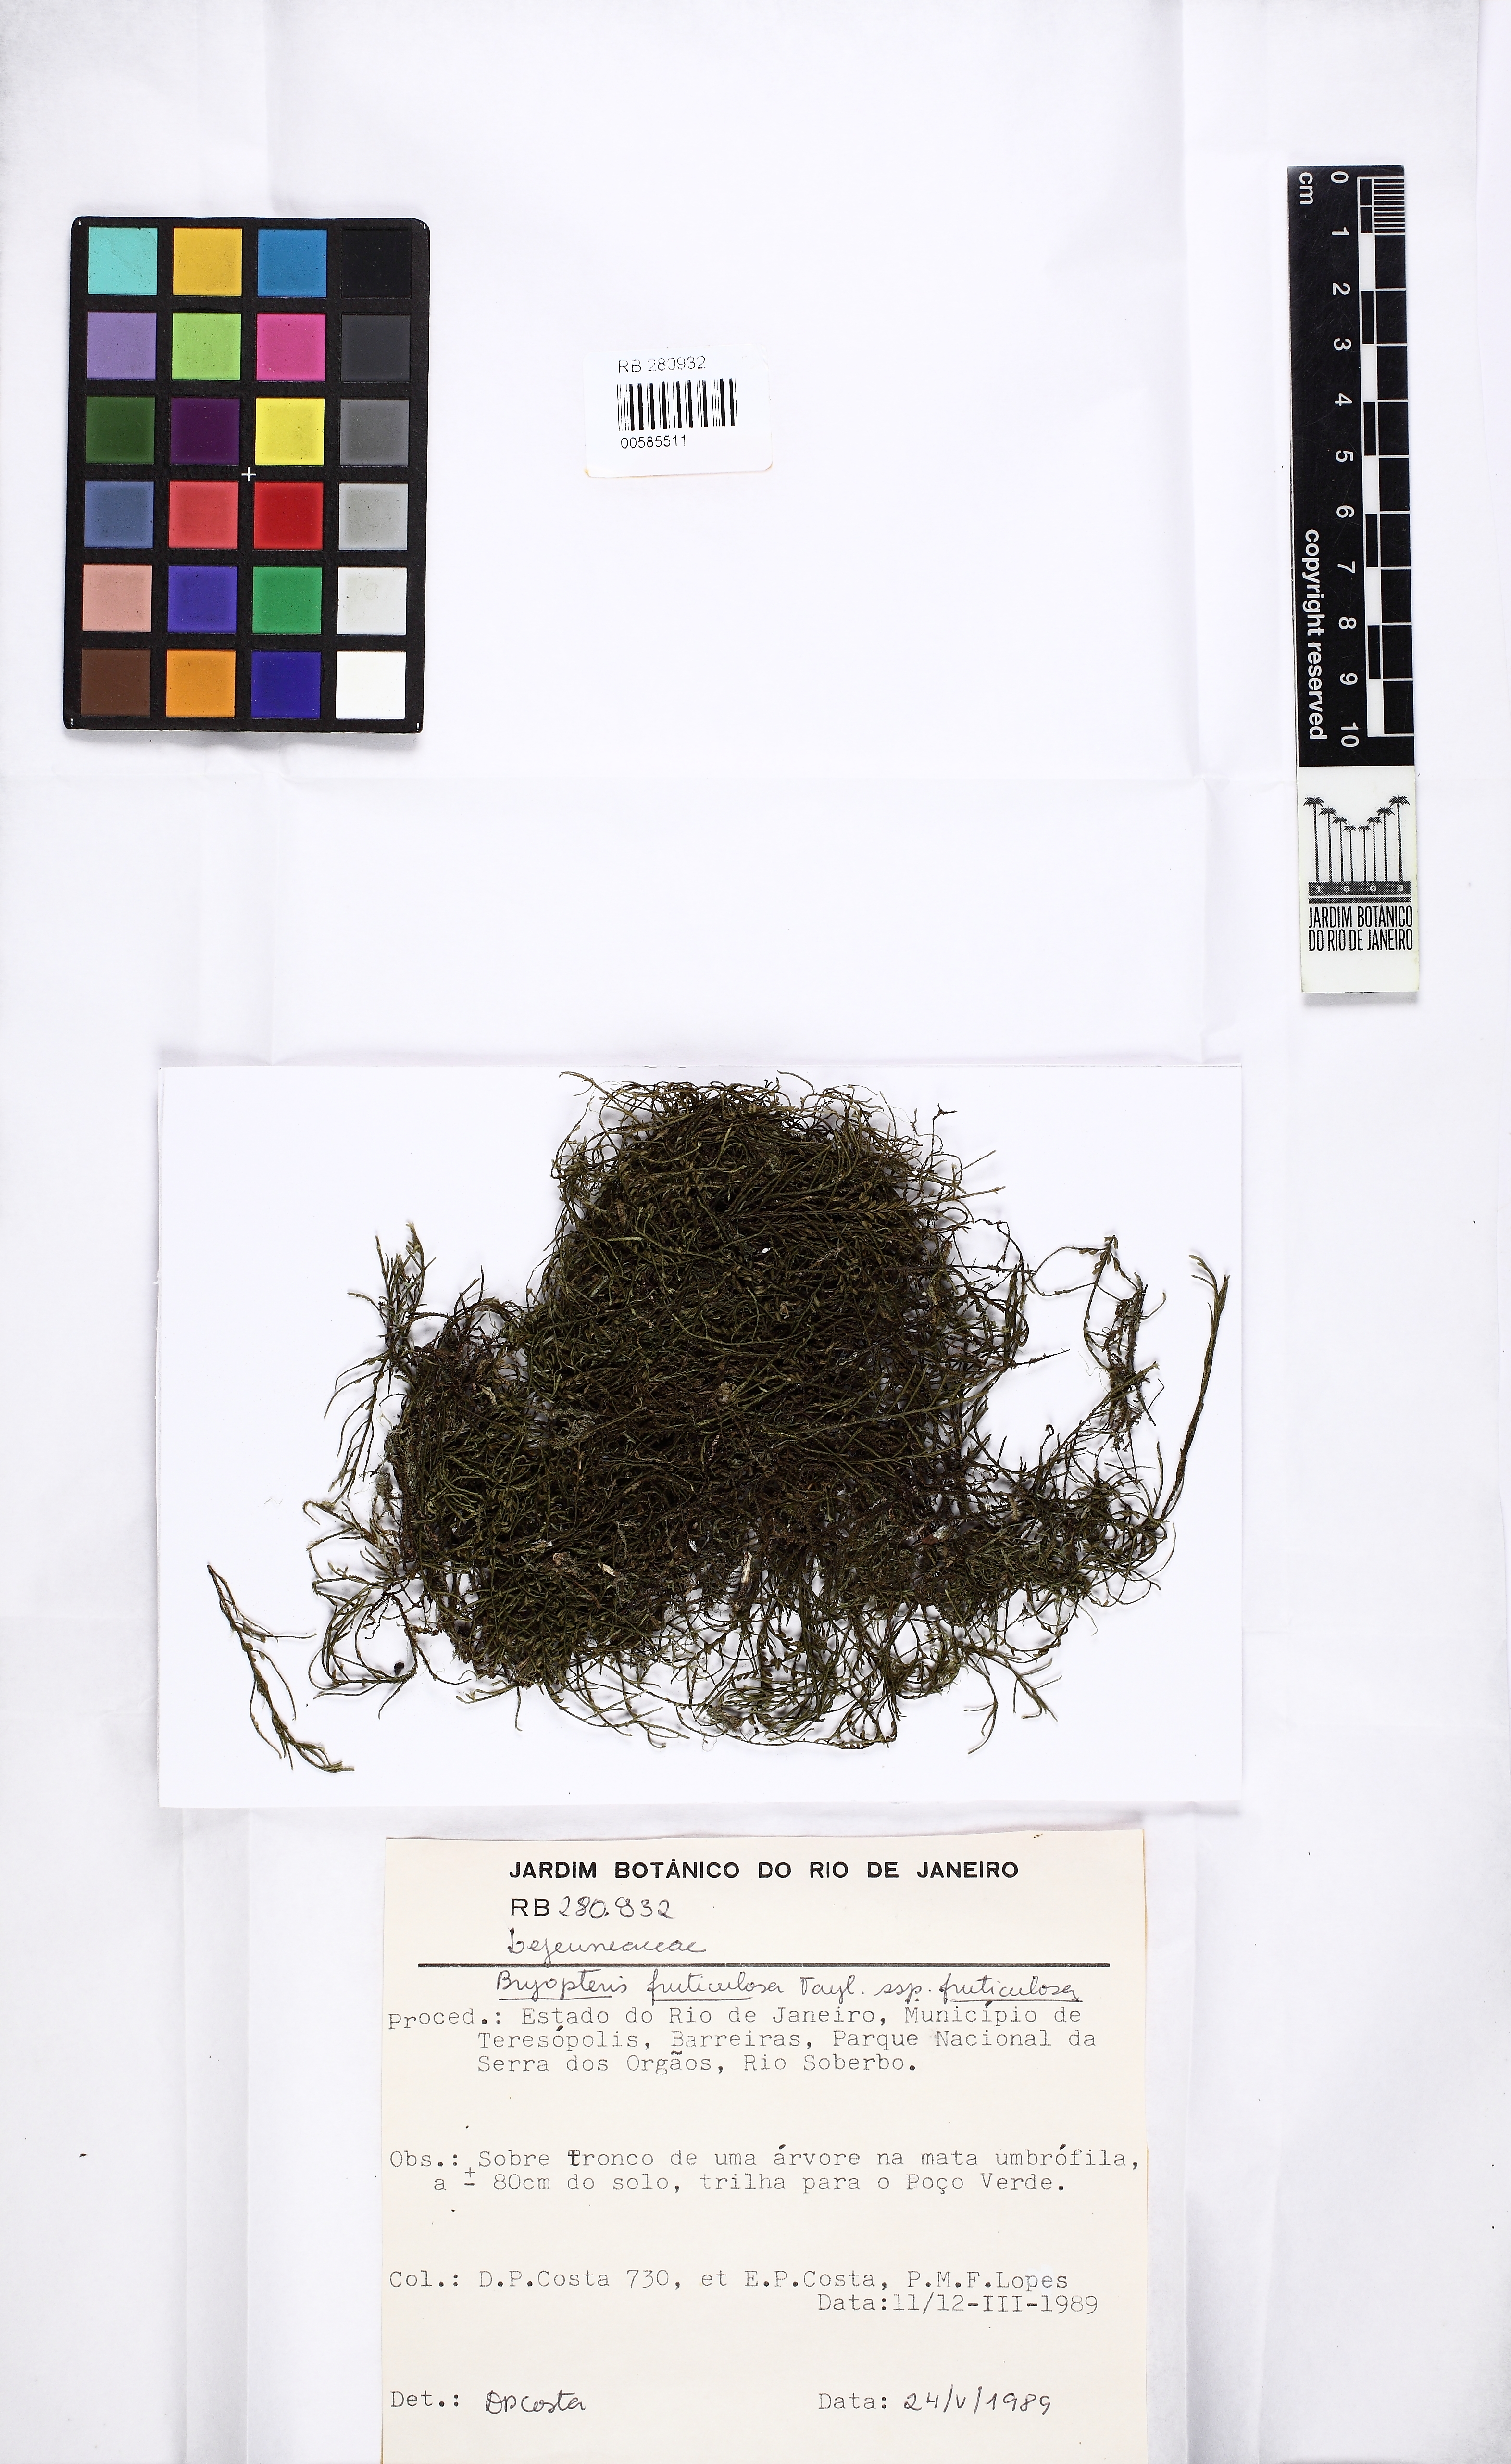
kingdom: Plantae
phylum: Marchantiophyta
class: Jungermanniopsida
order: Porellales
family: Lejeuneaceae
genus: Bryopteris
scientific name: Bryopteris filicina
